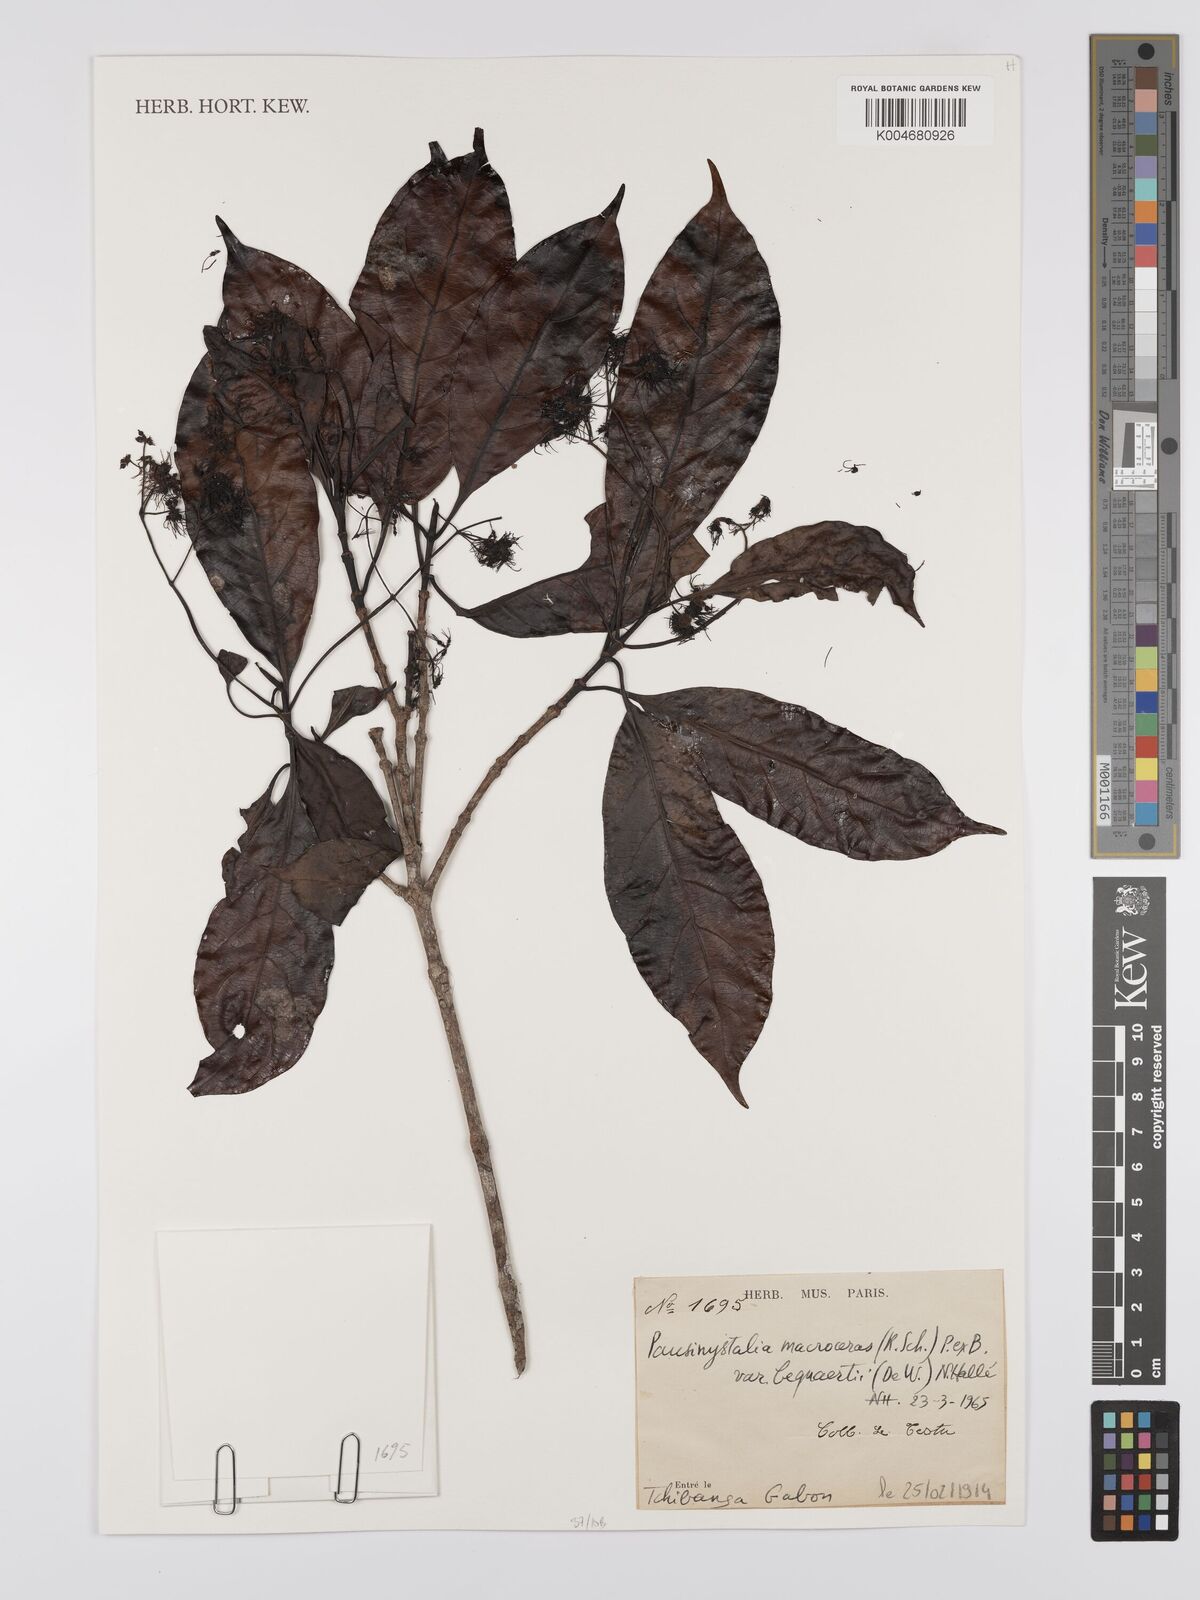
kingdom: Plantae
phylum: Tracheophyta
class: Magnoliopsida
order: Gentianales
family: Rubiaceae
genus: Corynanthe
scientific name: Corynanthe macroceras
